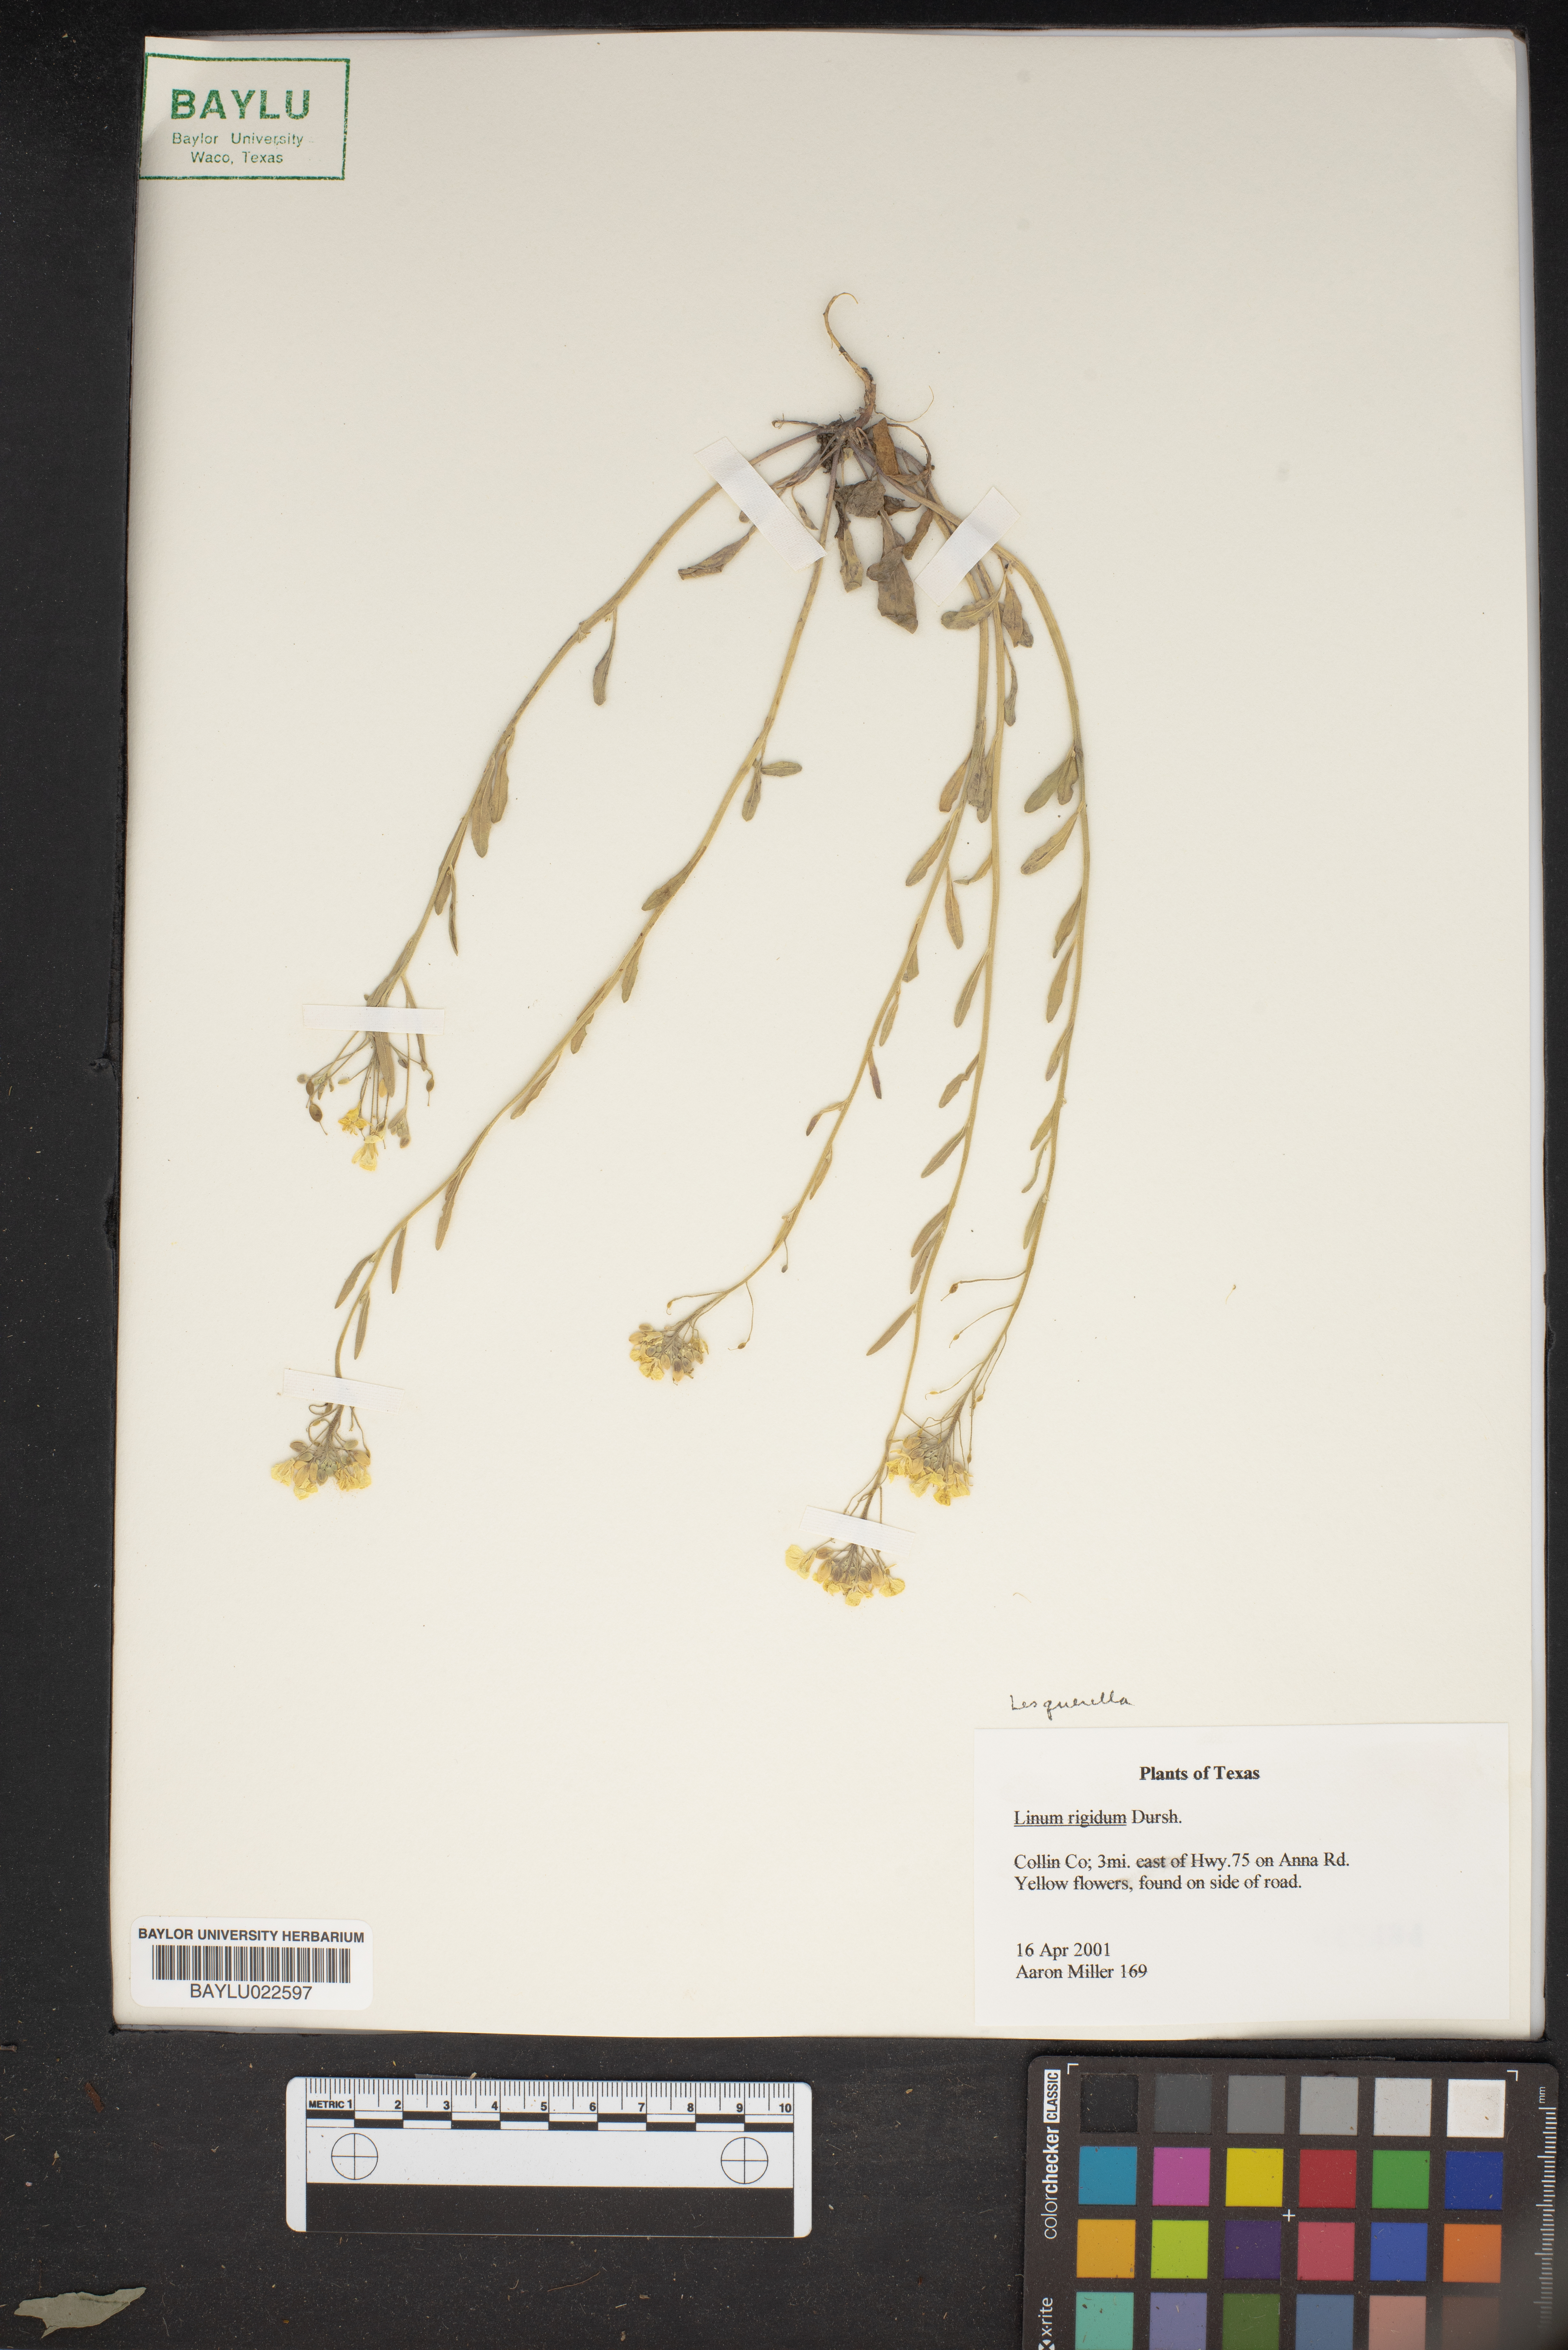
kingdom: Plantae
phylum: Tracheophyta
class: Magnoliopsida
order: Malpighiales
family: Linaceae
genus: Linum
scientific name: Linum rigidum
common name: Stiff-stem flax
